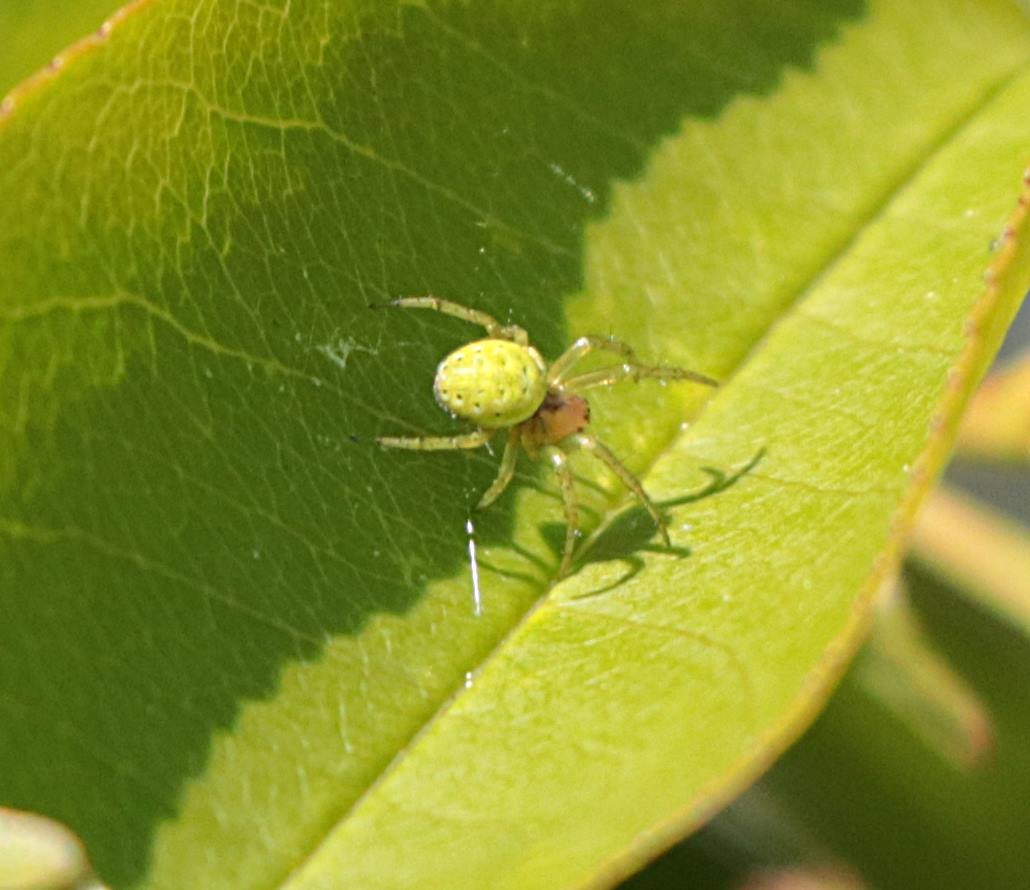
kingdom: Animalia
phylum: Arthropoda
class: Arachnida
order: Araneae
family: Araneidae
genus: Araniella
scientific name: Araniella
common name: Agurkeedderkopslægten
